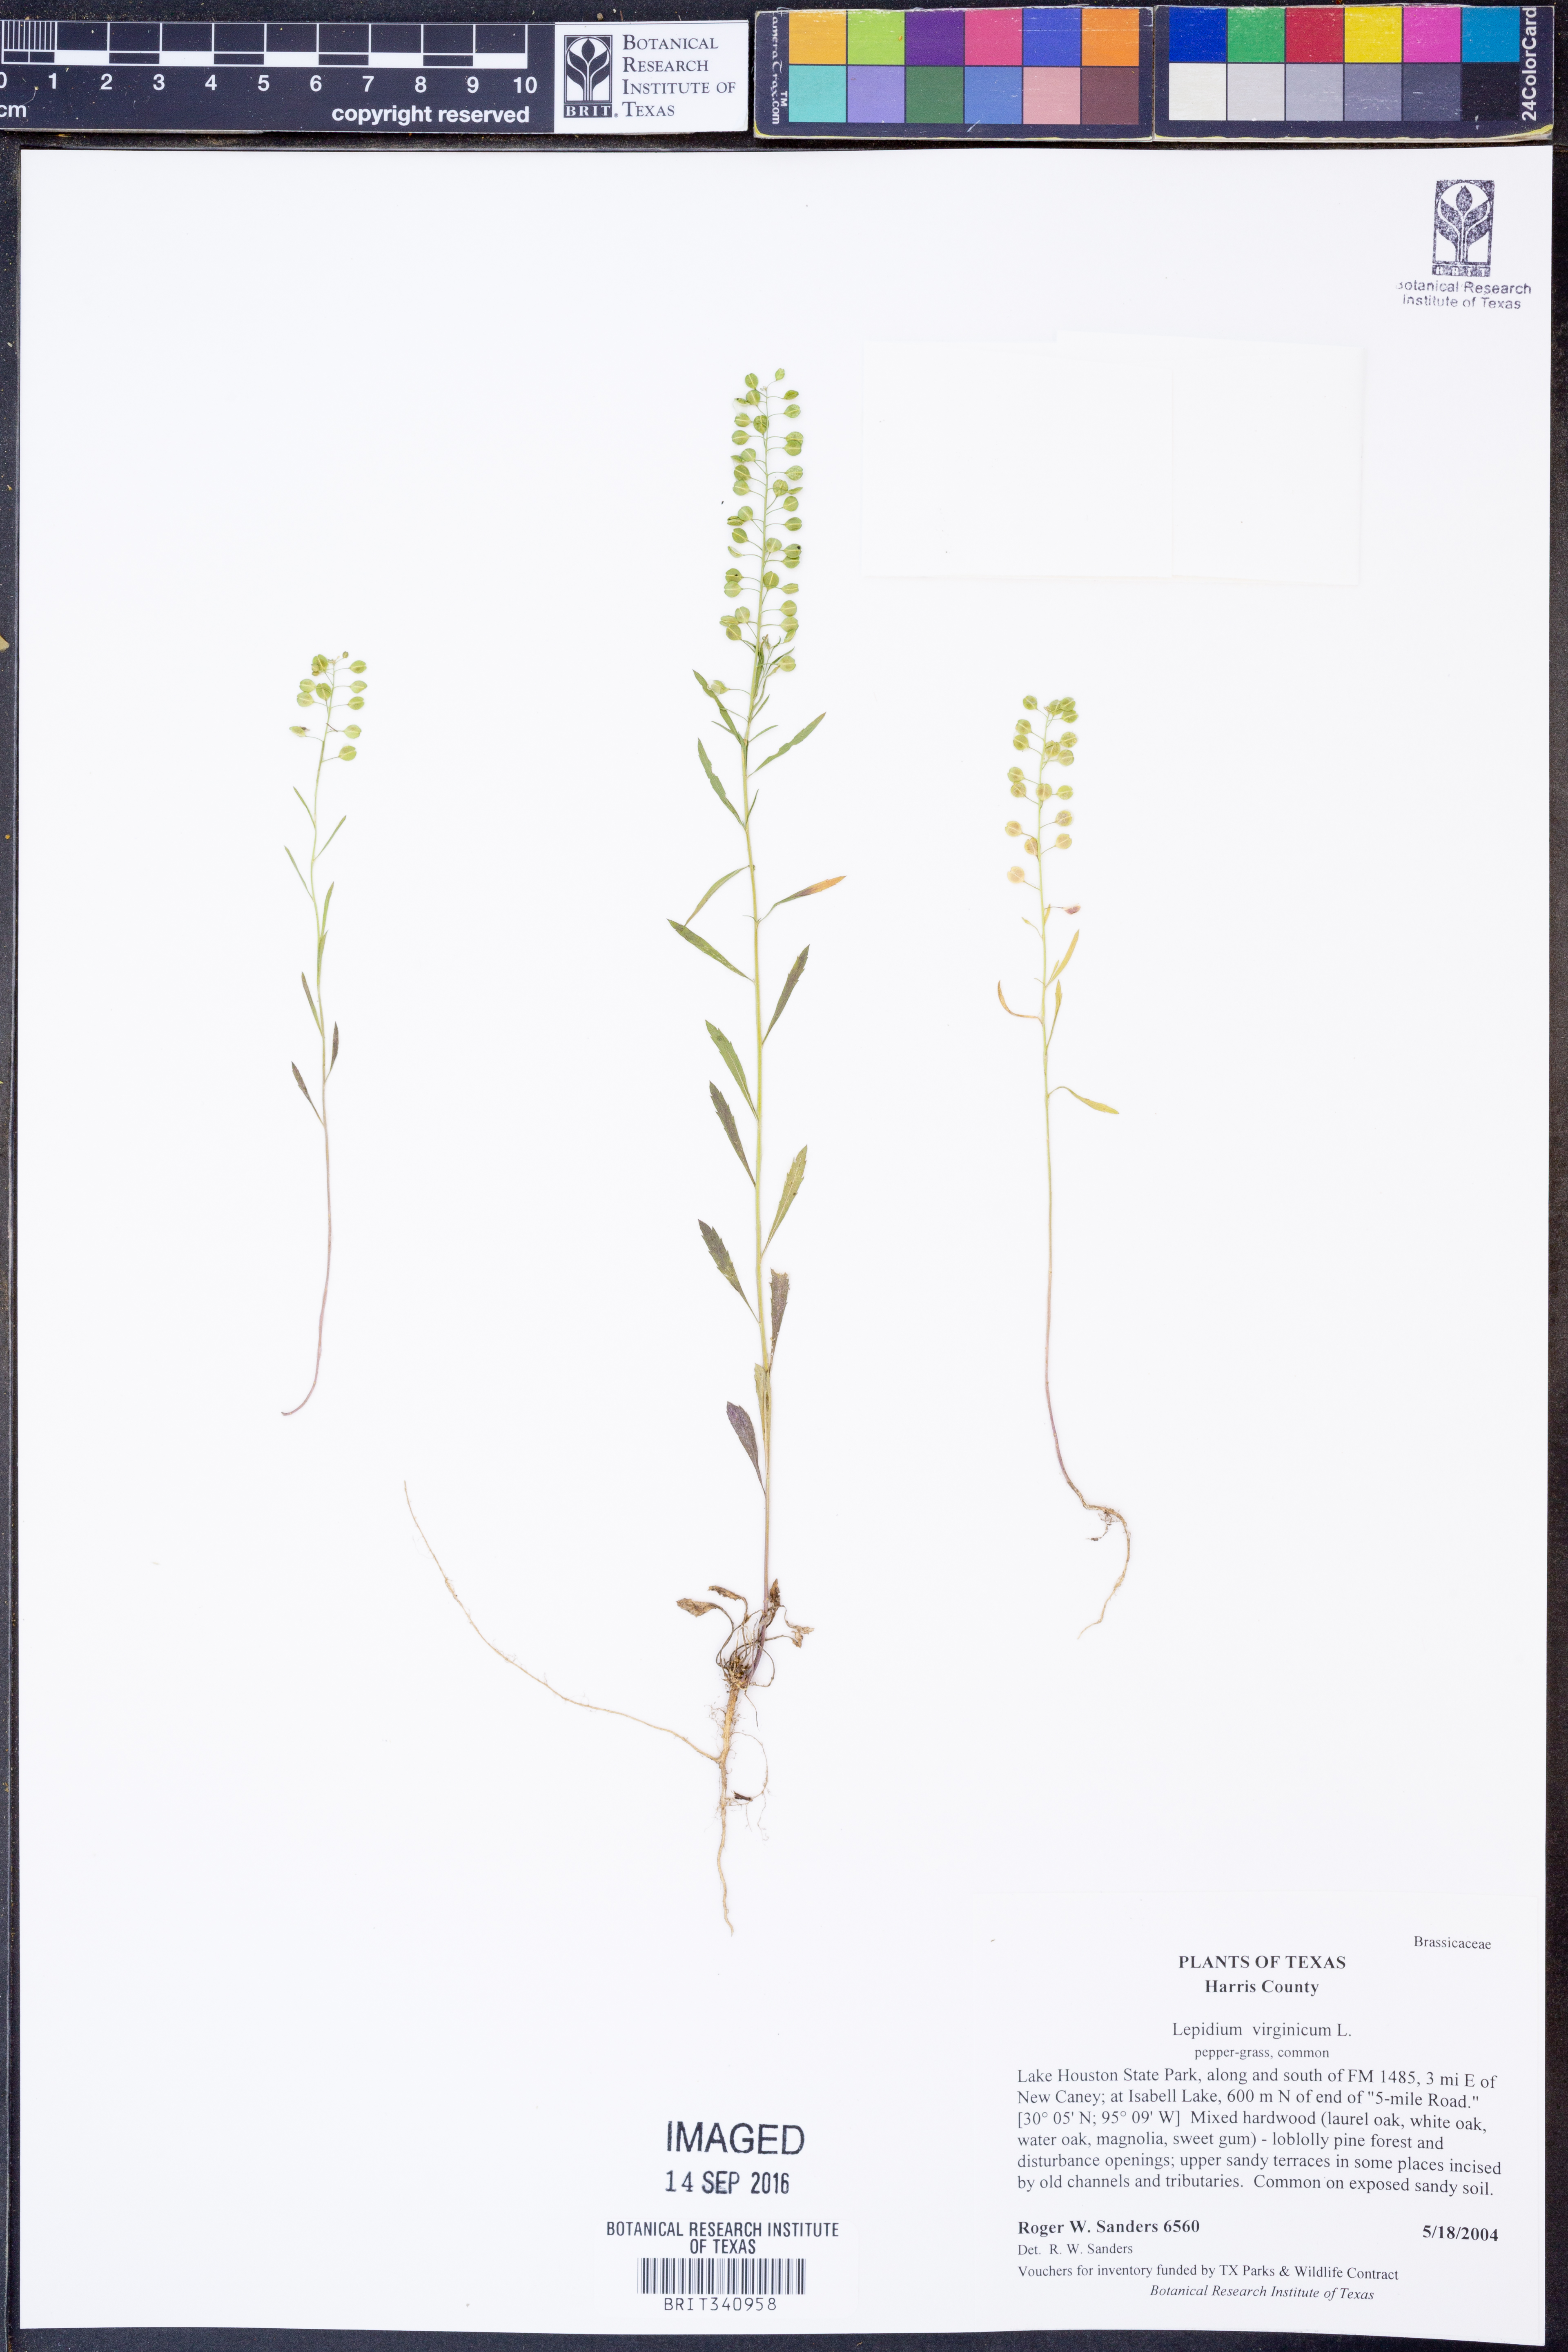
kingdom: Plantae
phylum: Tracheophyta
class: Magnoliopsida
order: Brassicales
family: Brassicaceae
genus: Lepidium
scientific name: Lepidium virginicum
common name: Least pepperwort
